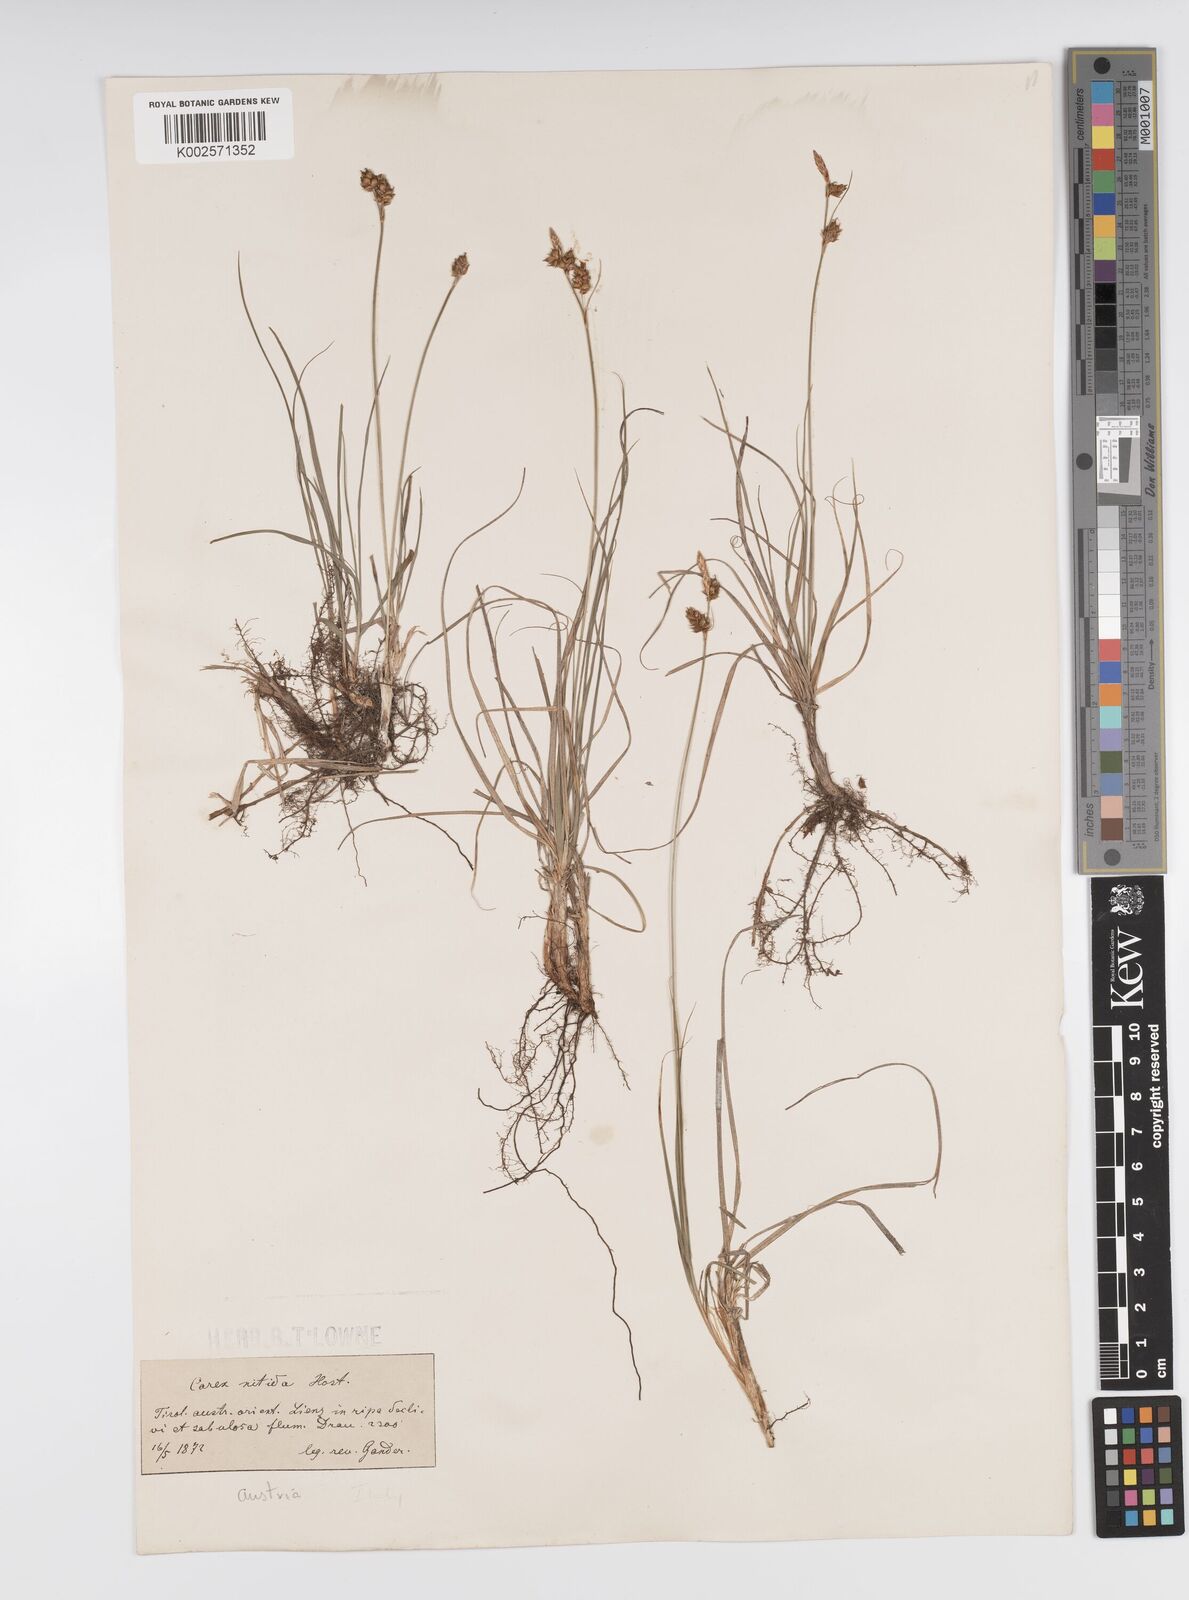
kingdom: Plantae
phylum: Tracheophyta
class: Liliopsida
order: Poales
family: Cyperaceae
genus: Carex
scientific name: Carex liparocarpos
